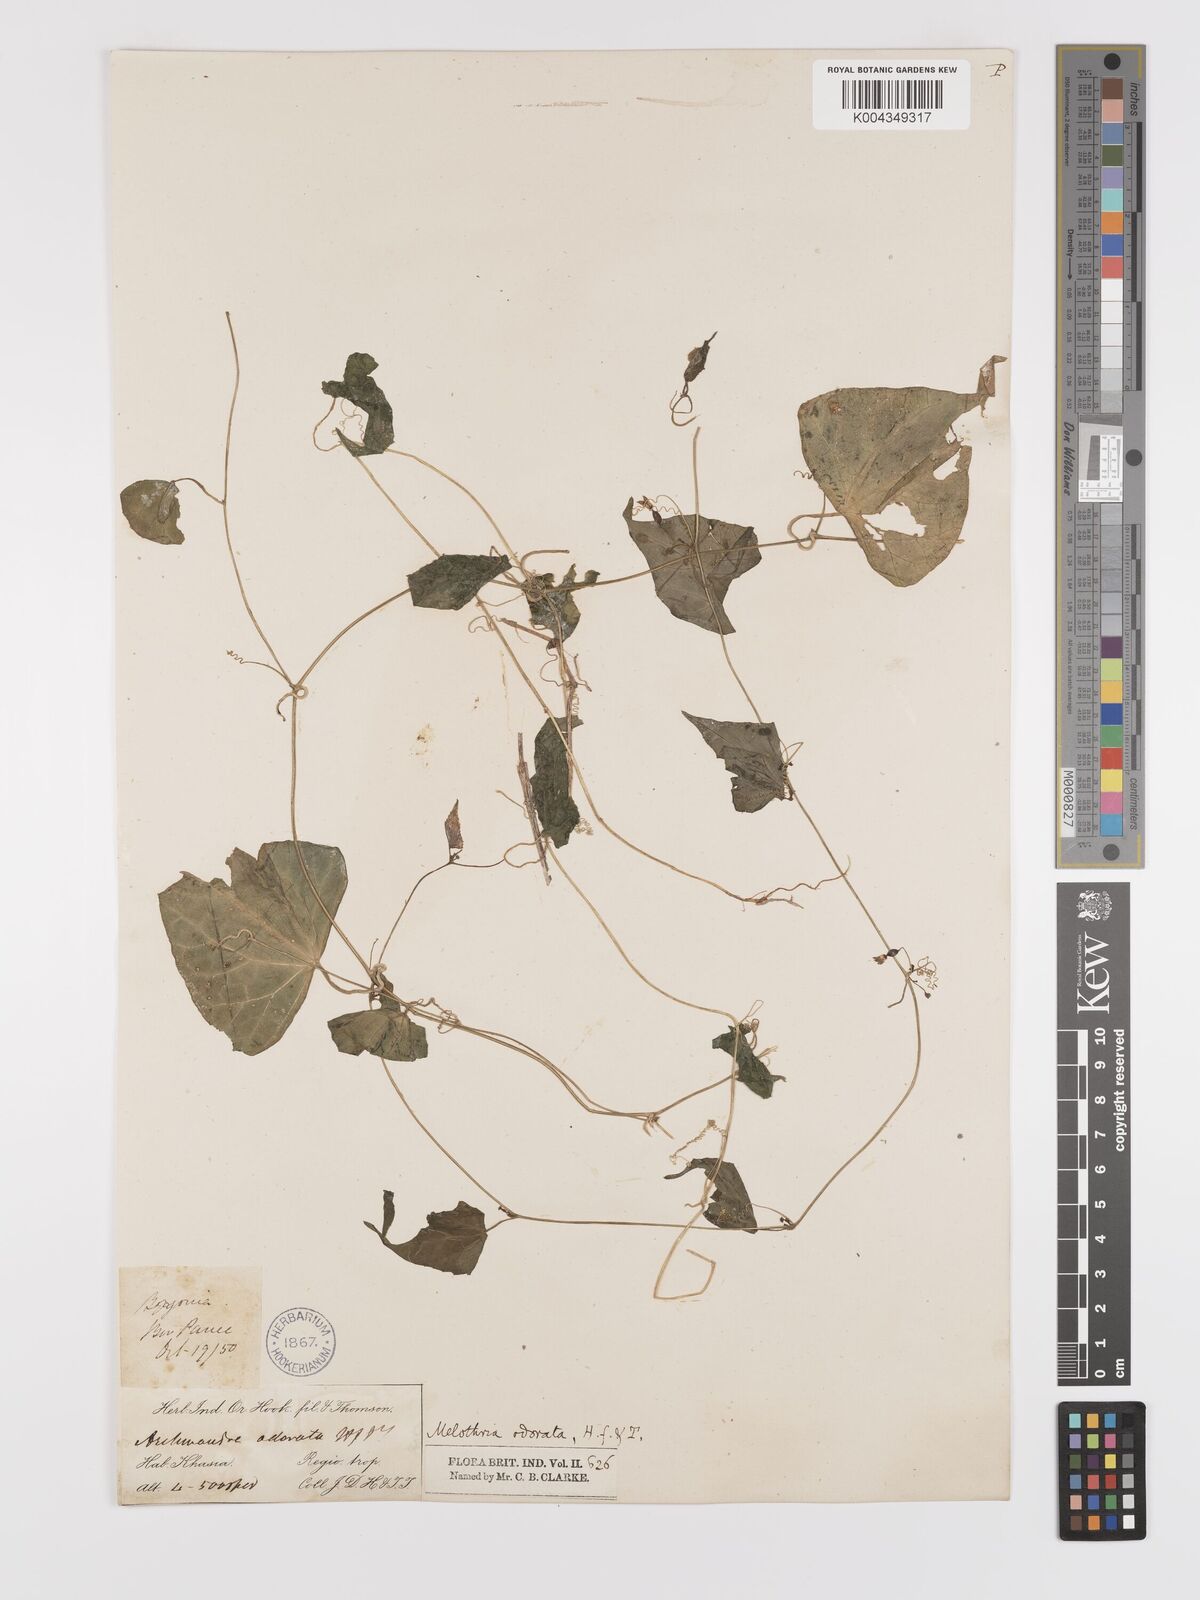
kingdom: Plantae
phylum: Tracheophyta
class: Magnoliopsida
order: Cucurbitales
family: Cucurbitaceae
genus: Zehneria
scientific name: Zehneria odorata
